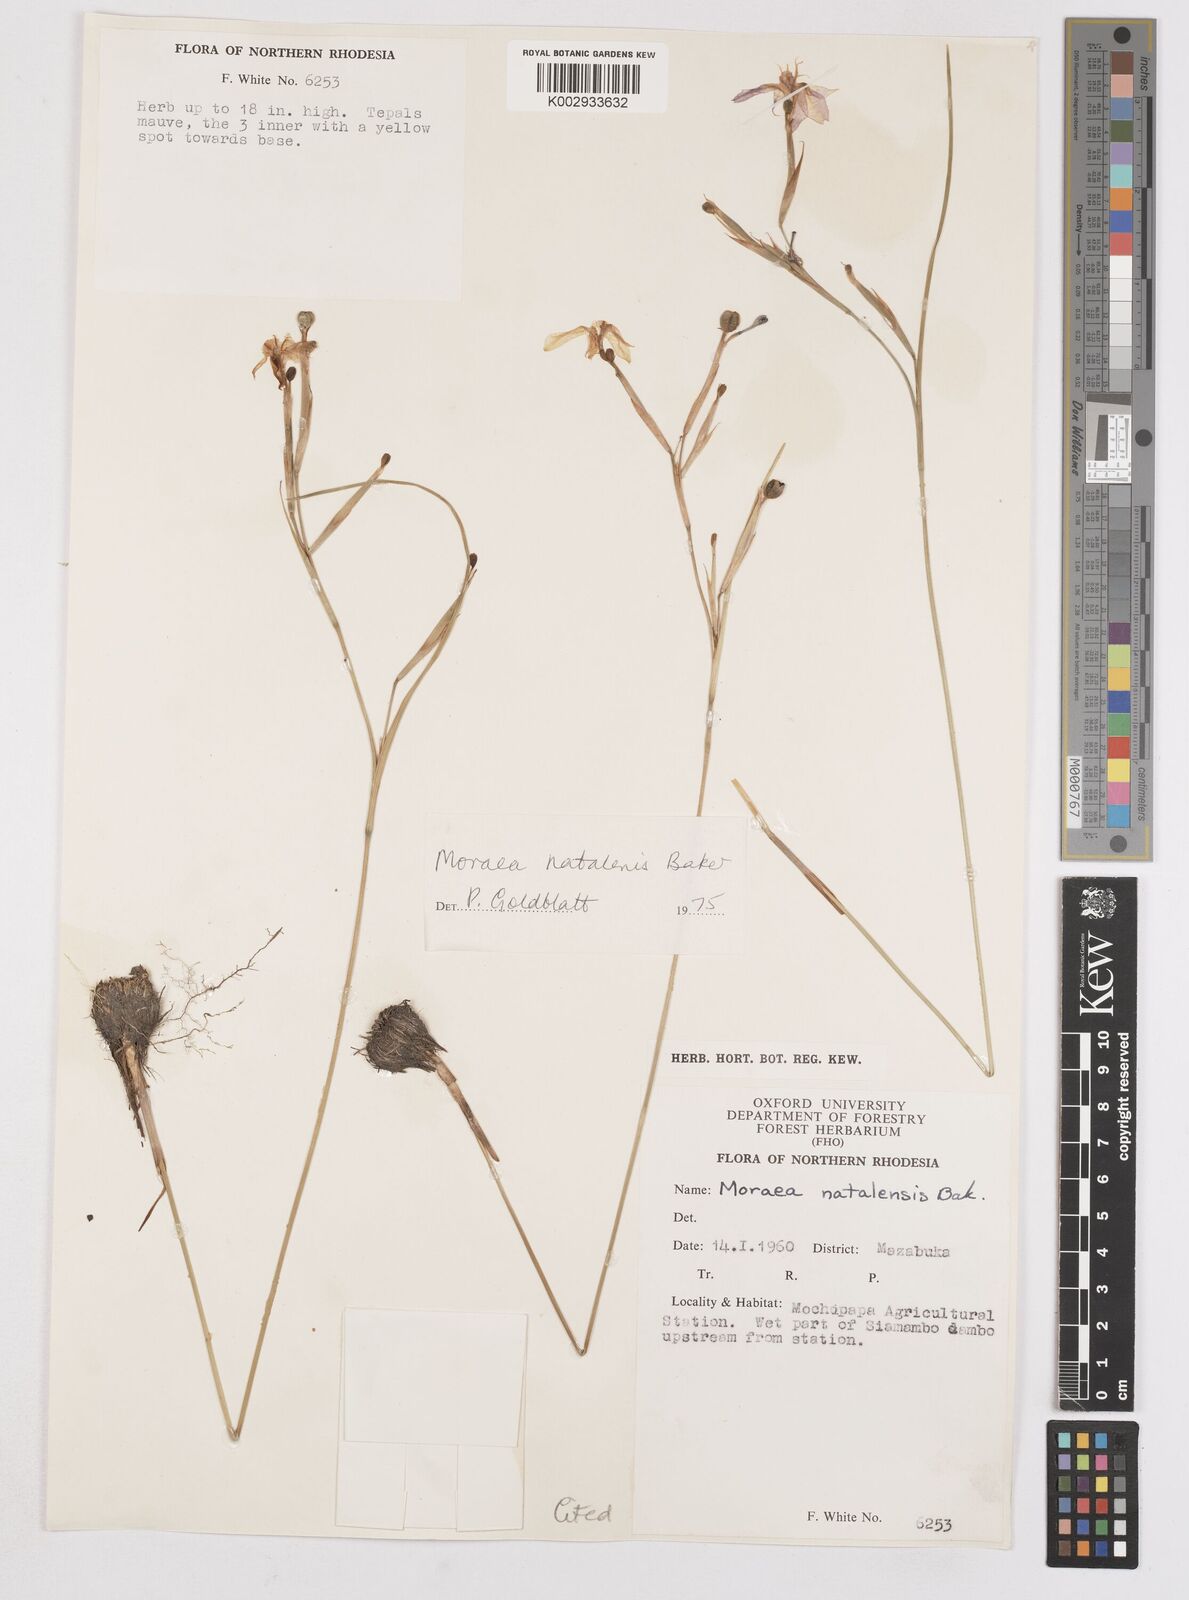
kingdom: Plantae
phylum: Tracheophyta
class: Liliopsida
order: Asparagales
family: Iridaceae
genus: Moraea
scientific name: Moraea natalensis
